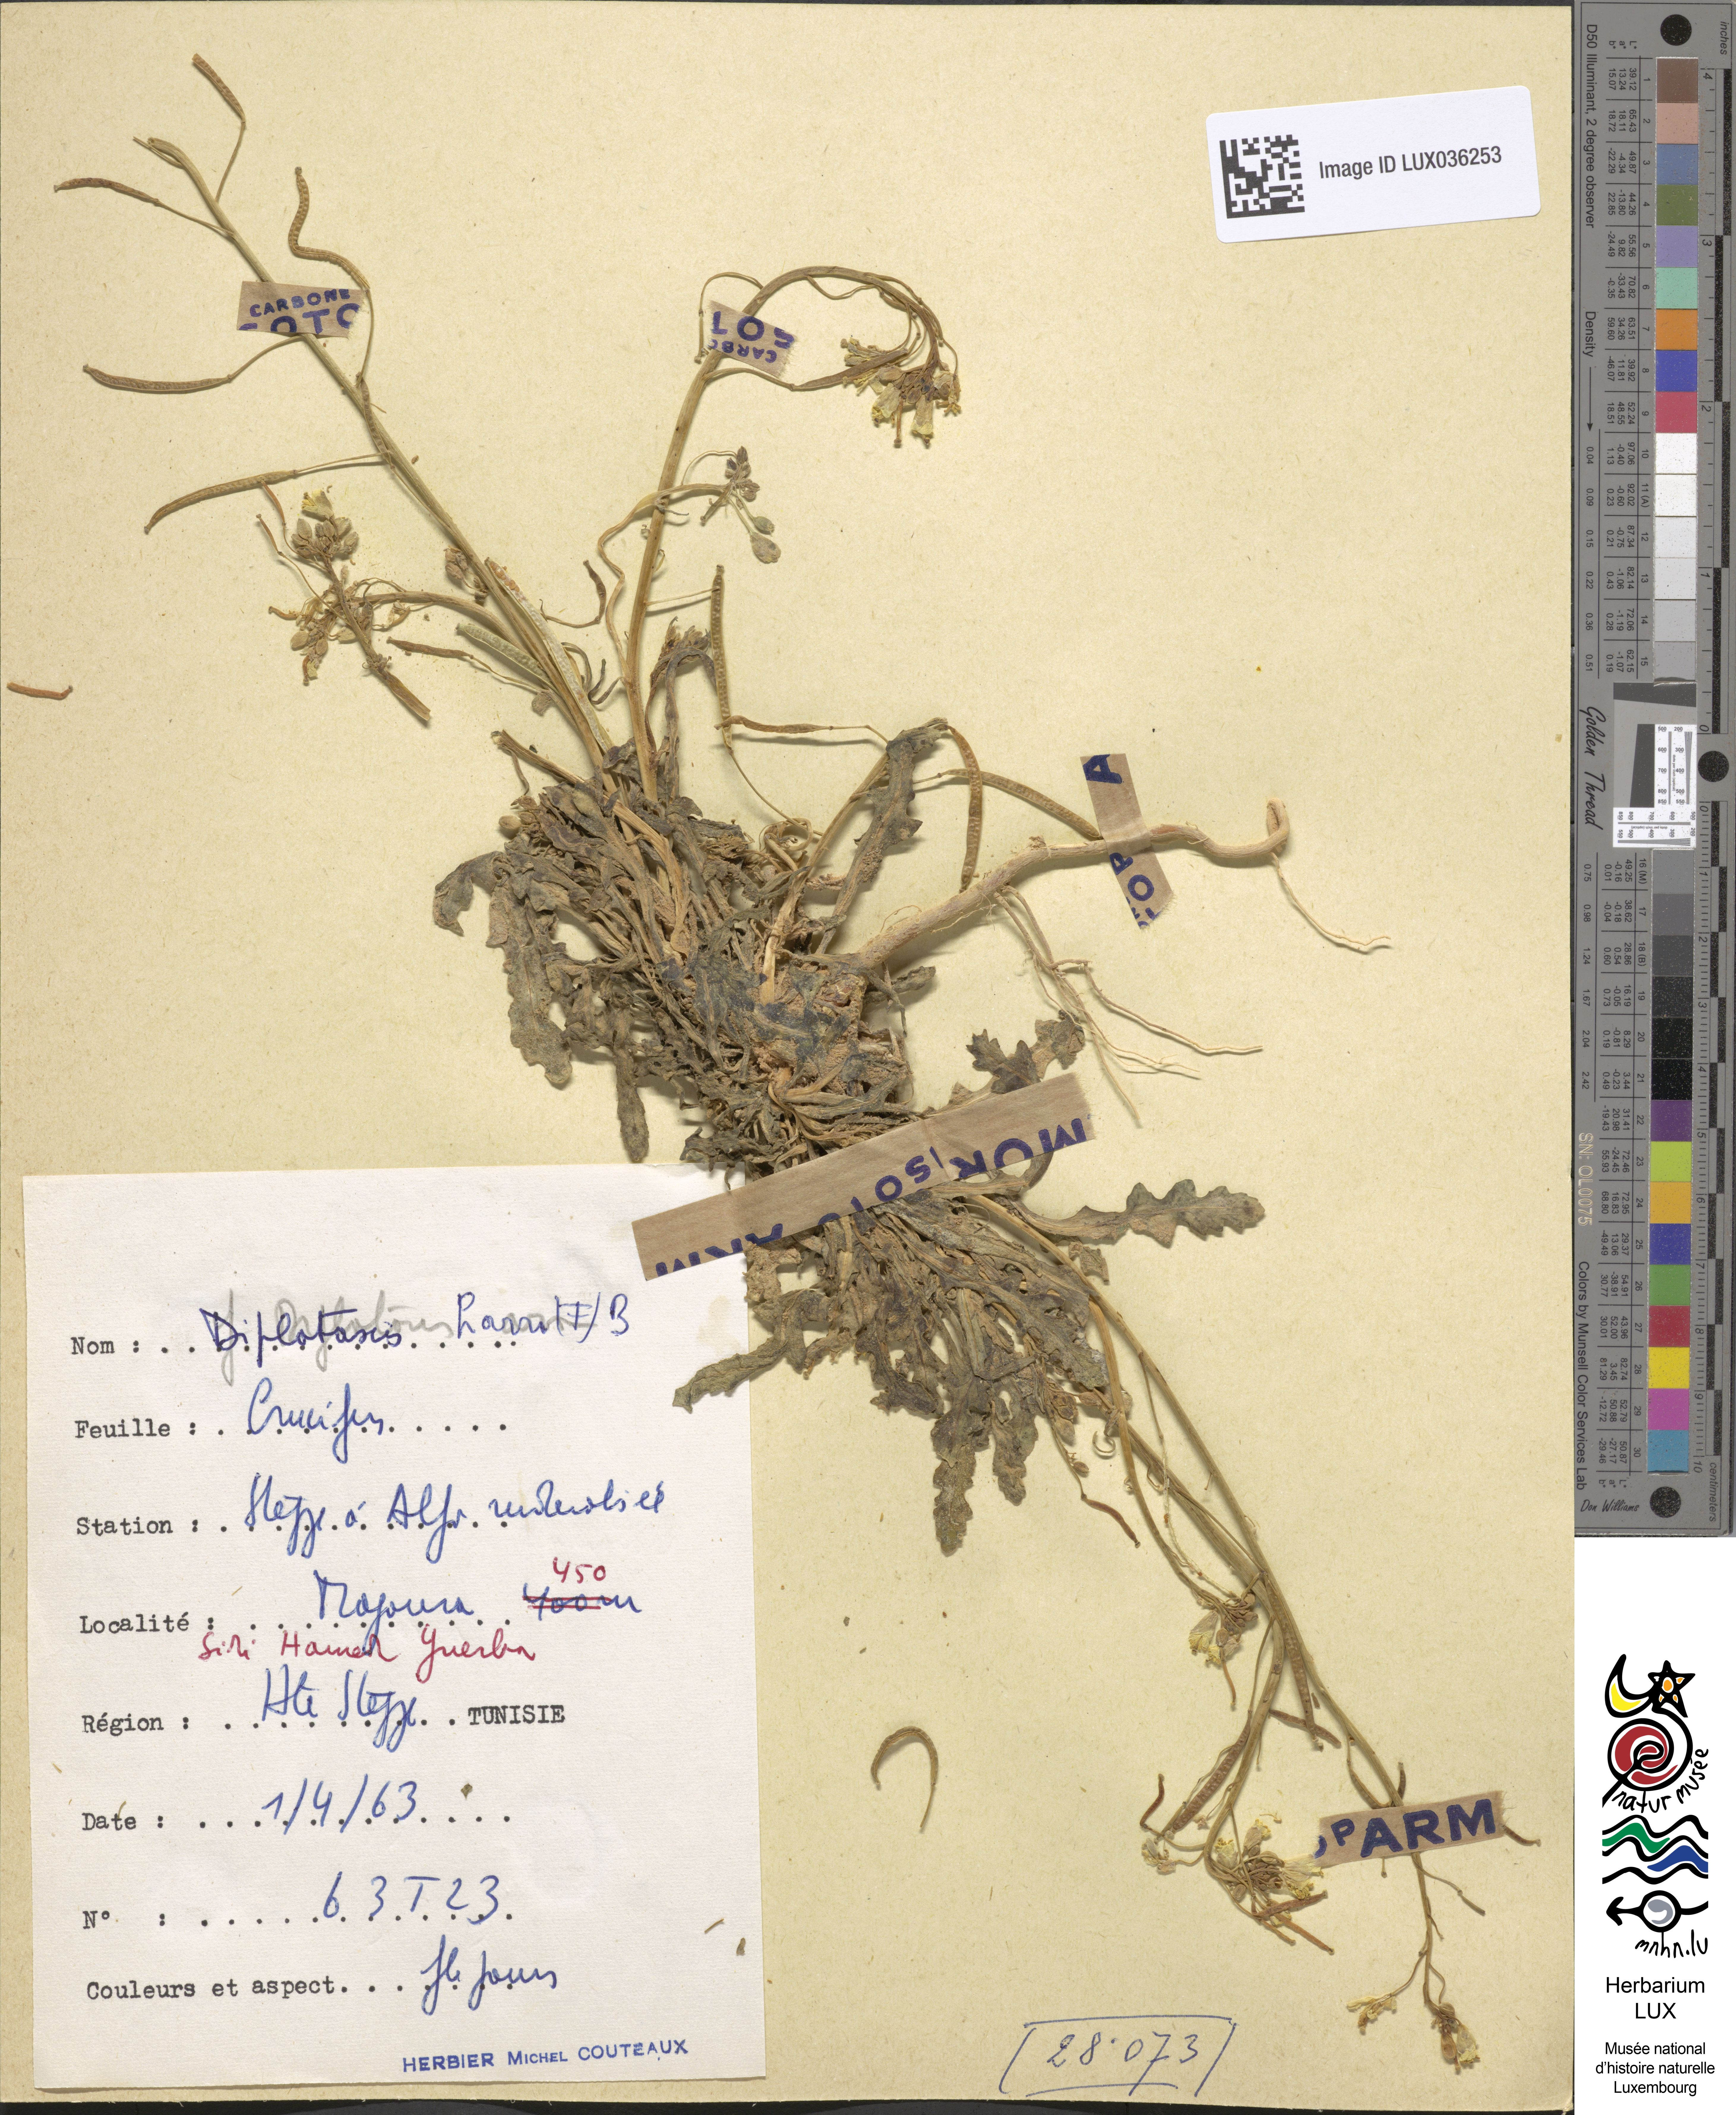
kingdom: Plantae
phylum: Tracheophyta
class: Magnoliopsida
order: Brassicales
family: Brassicaceae
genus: Diplotaxis
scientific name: Diplotaxis harra
